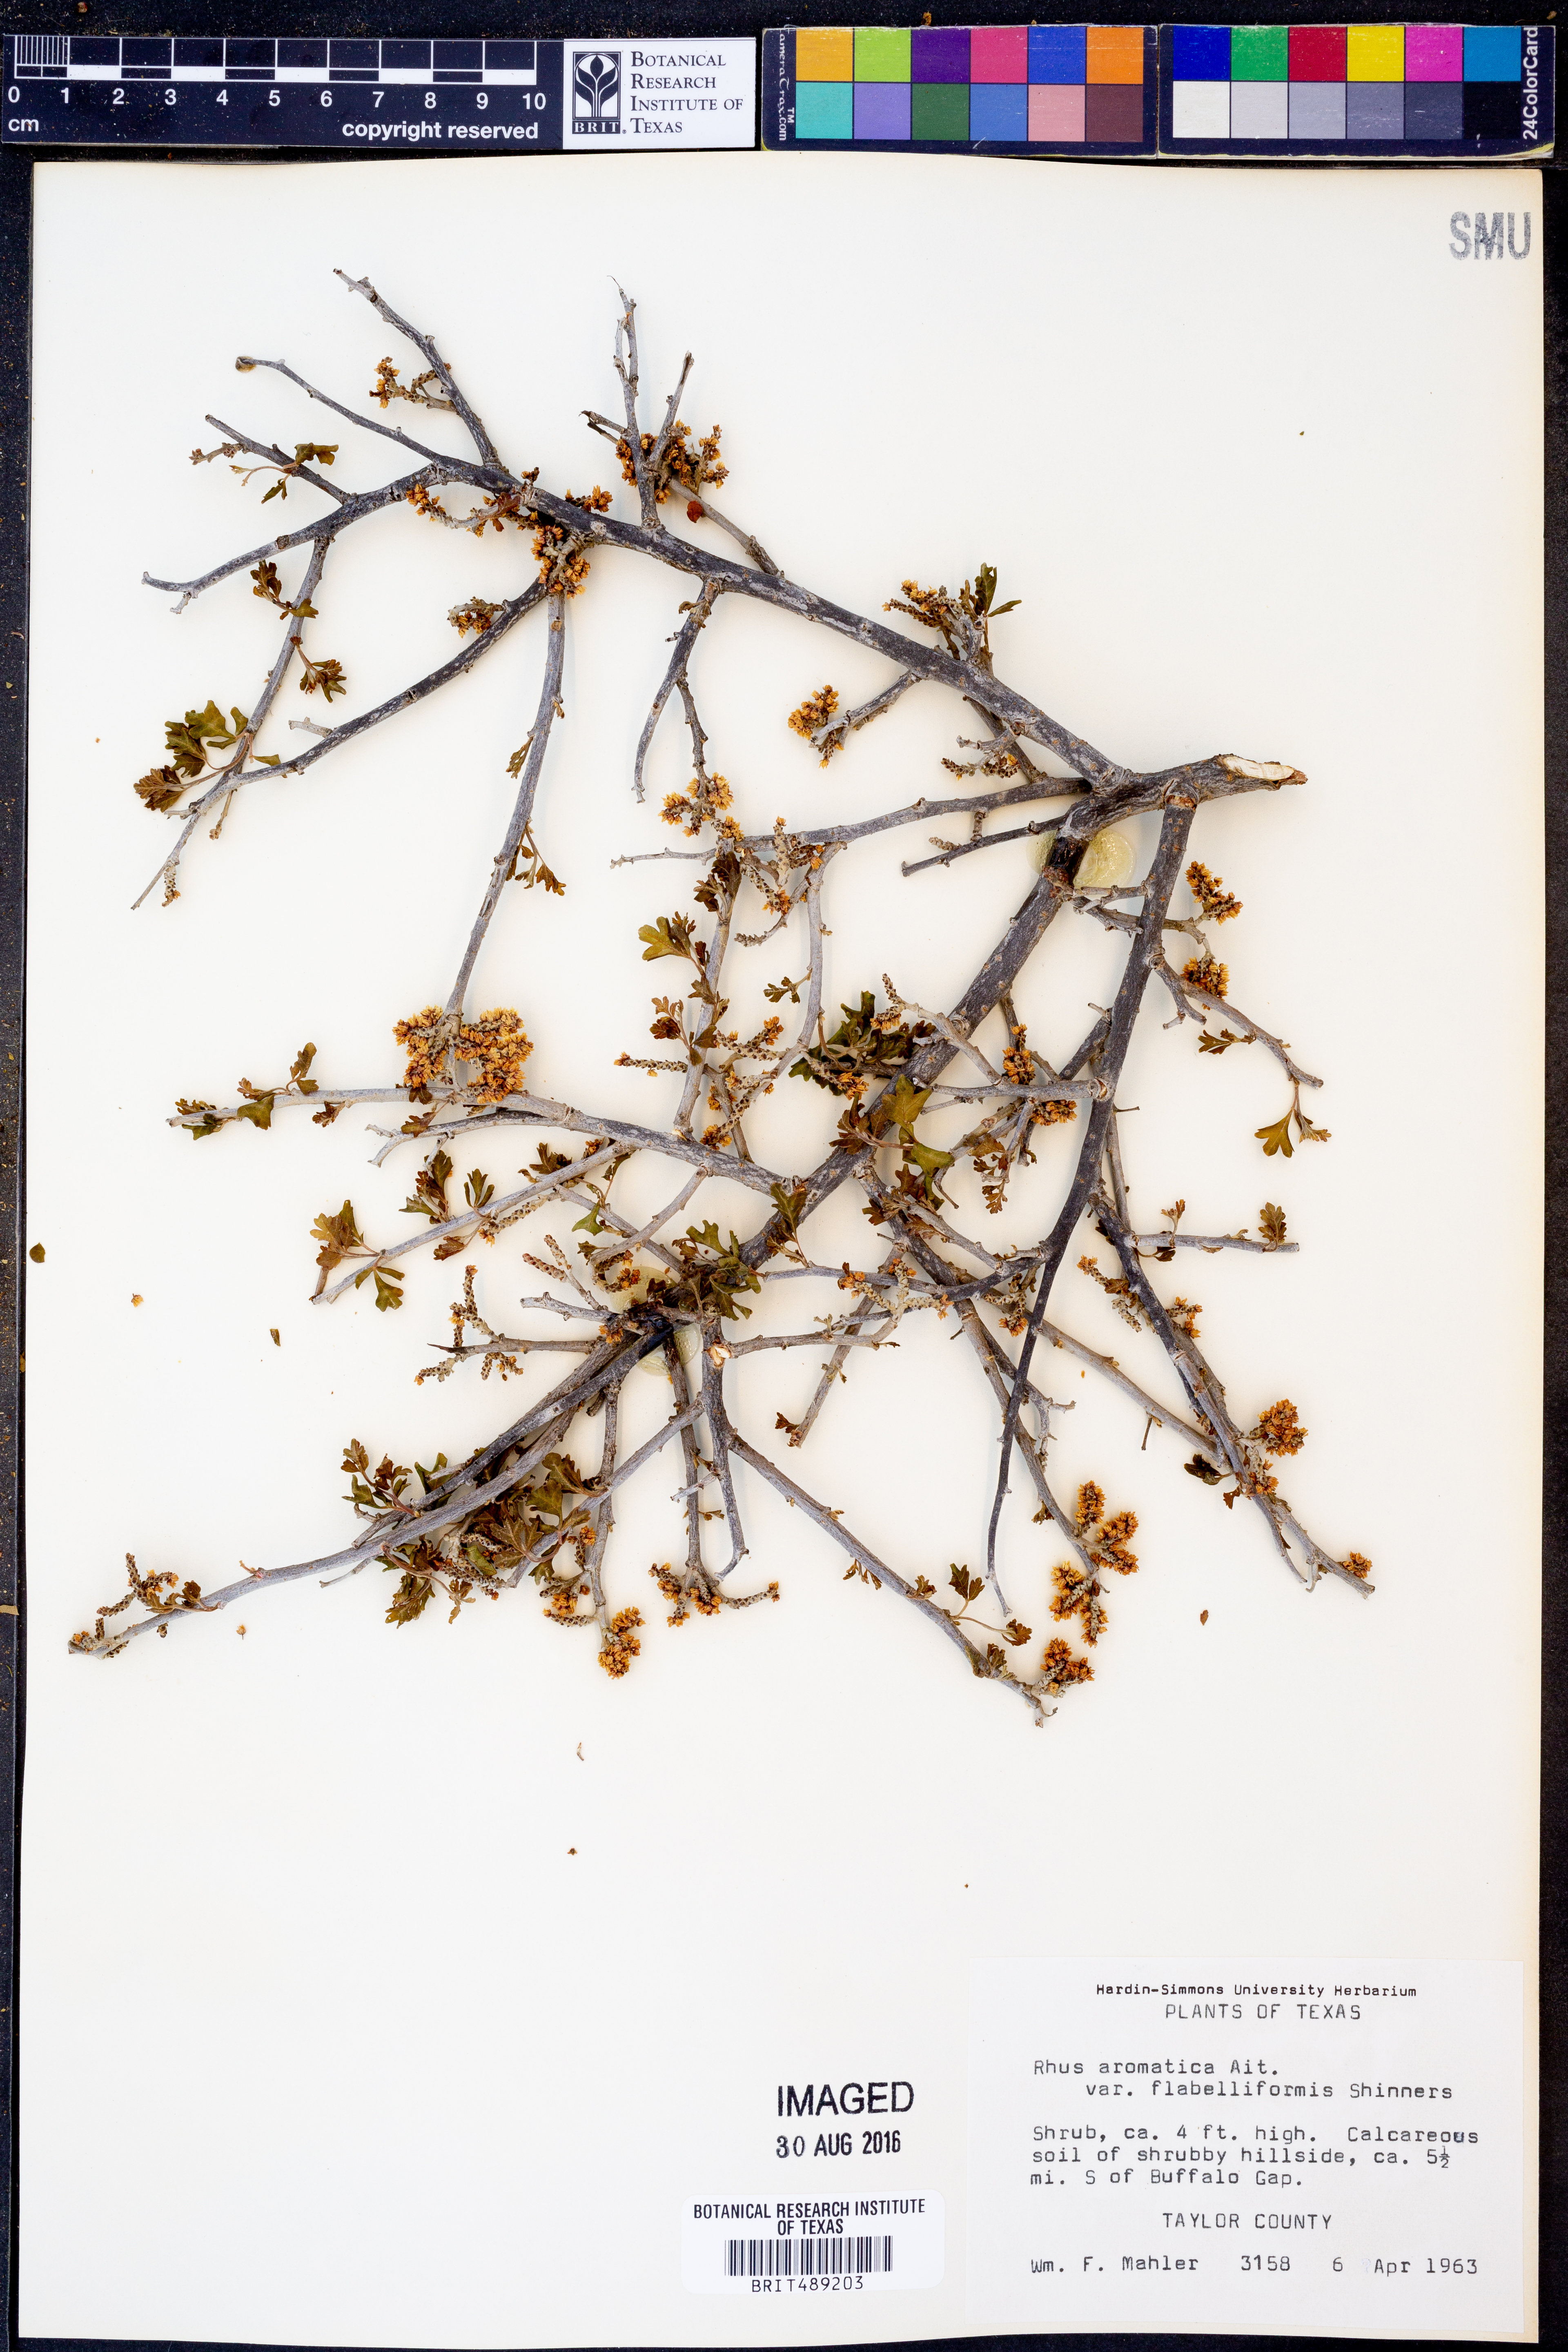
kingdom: Plantae
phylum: Tracheophyta
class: Magnoliopsida
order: Sapindales
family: Anacardiaceae
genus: Rhus
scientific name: Rhus trilobata
